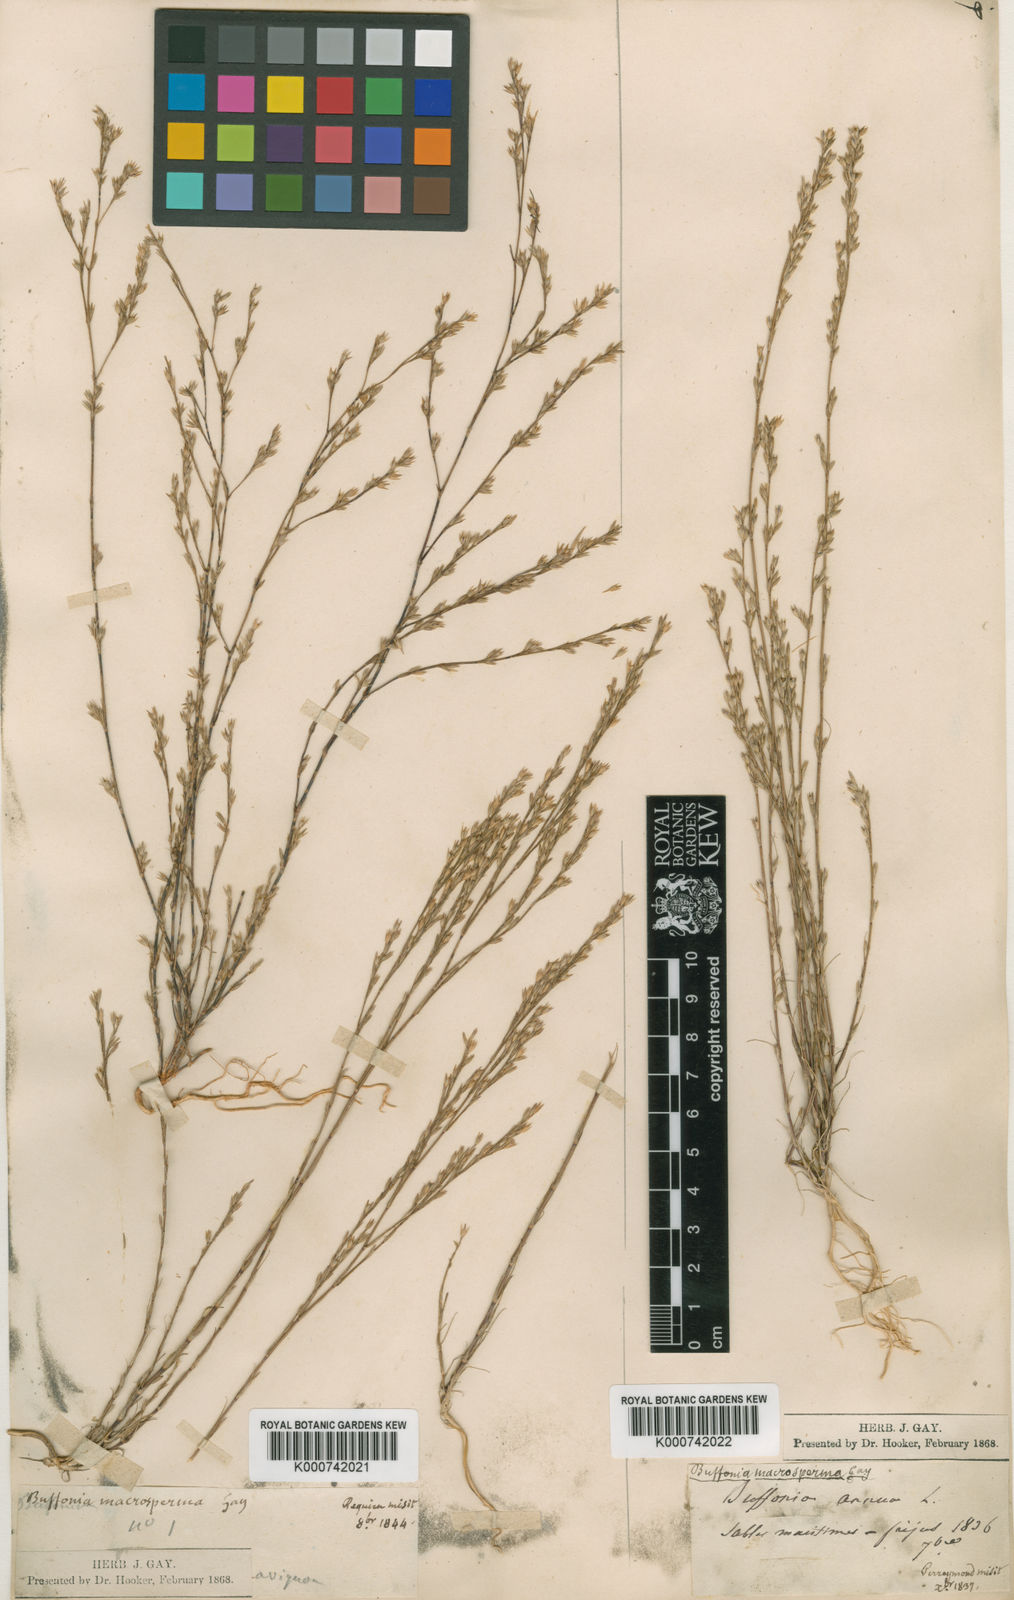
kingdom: Plantae
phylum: Tracheophyta
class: Magnoliopsida
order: Caryophyllales
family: Caryophyllaceae
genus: Bufonia
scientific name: Bufonia paniculata
